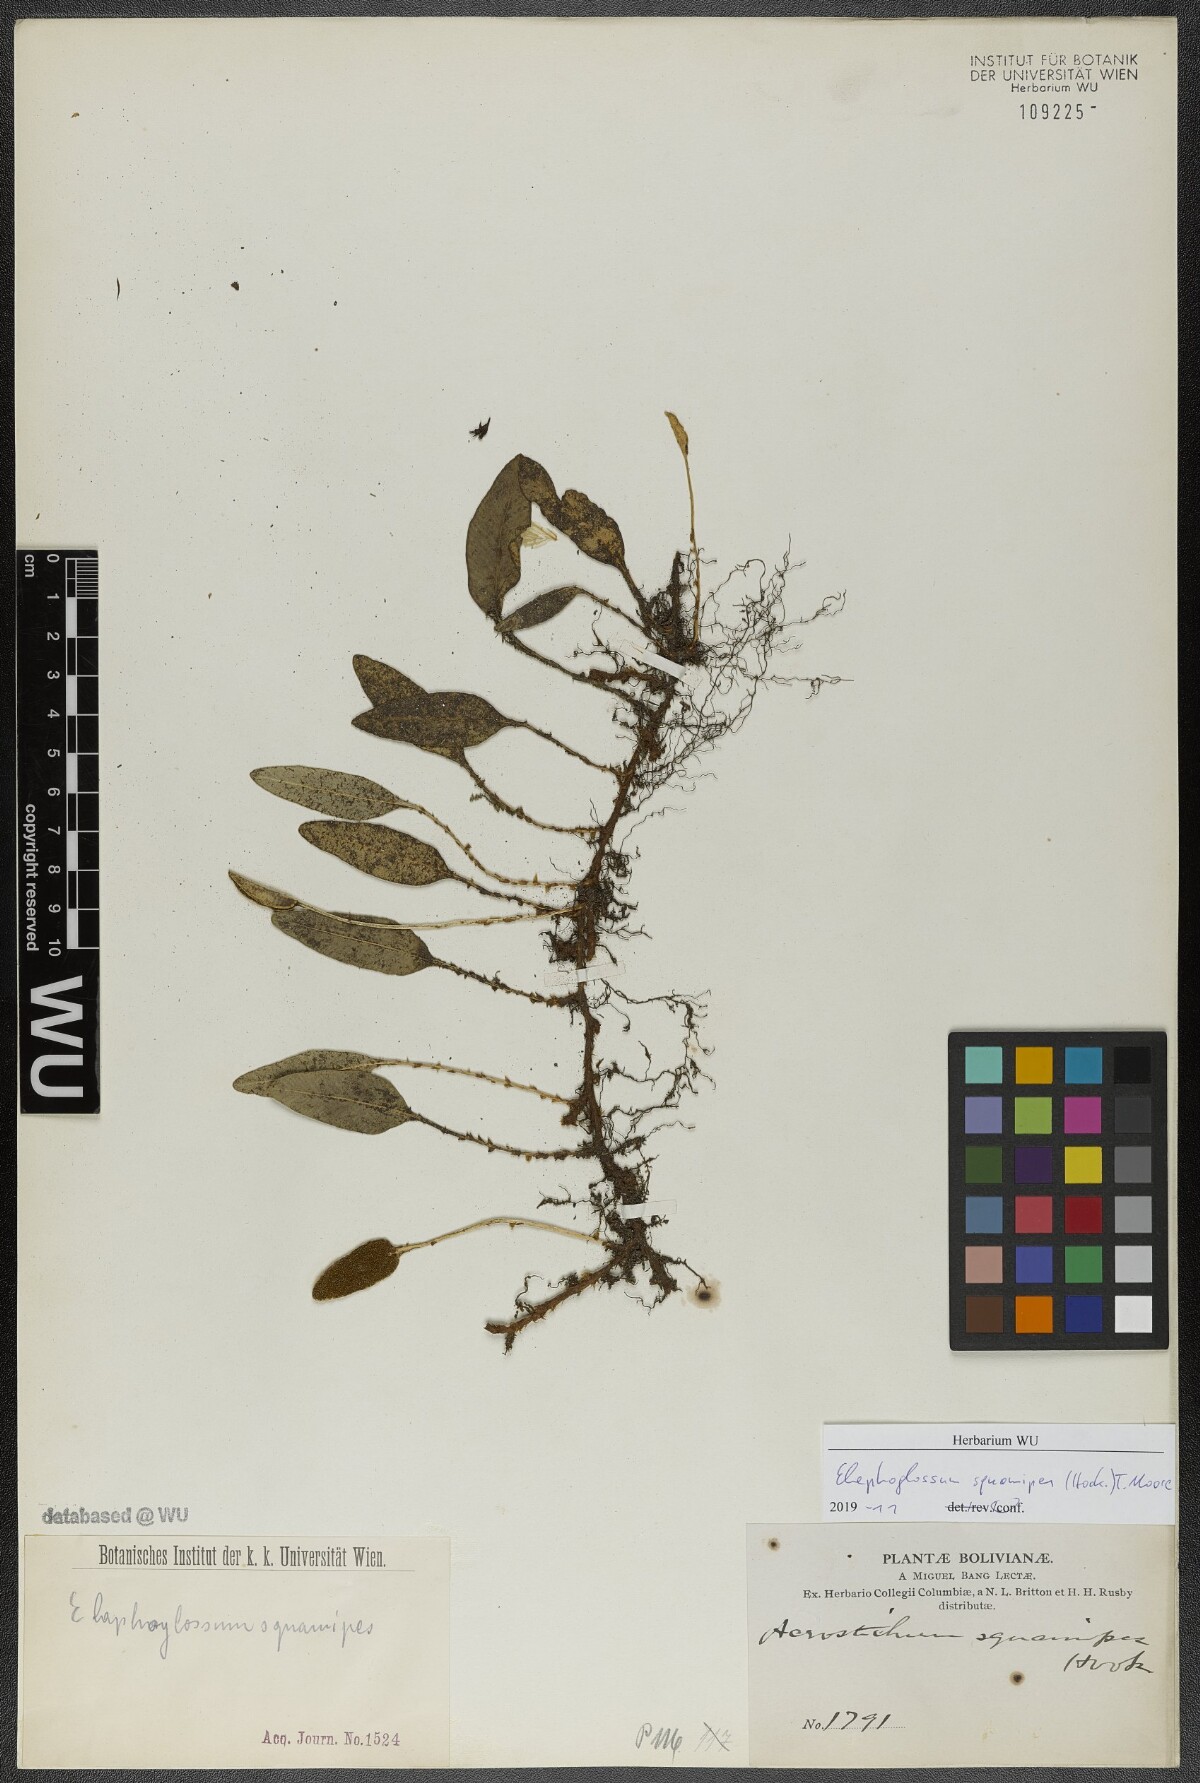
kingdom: Plantae
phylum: Tracheophyta
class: Polypodiopsida
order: Polypodiales
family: Dryopteridaceae
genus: Elaphoglossum
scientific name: Elaphoglossum squamipes
